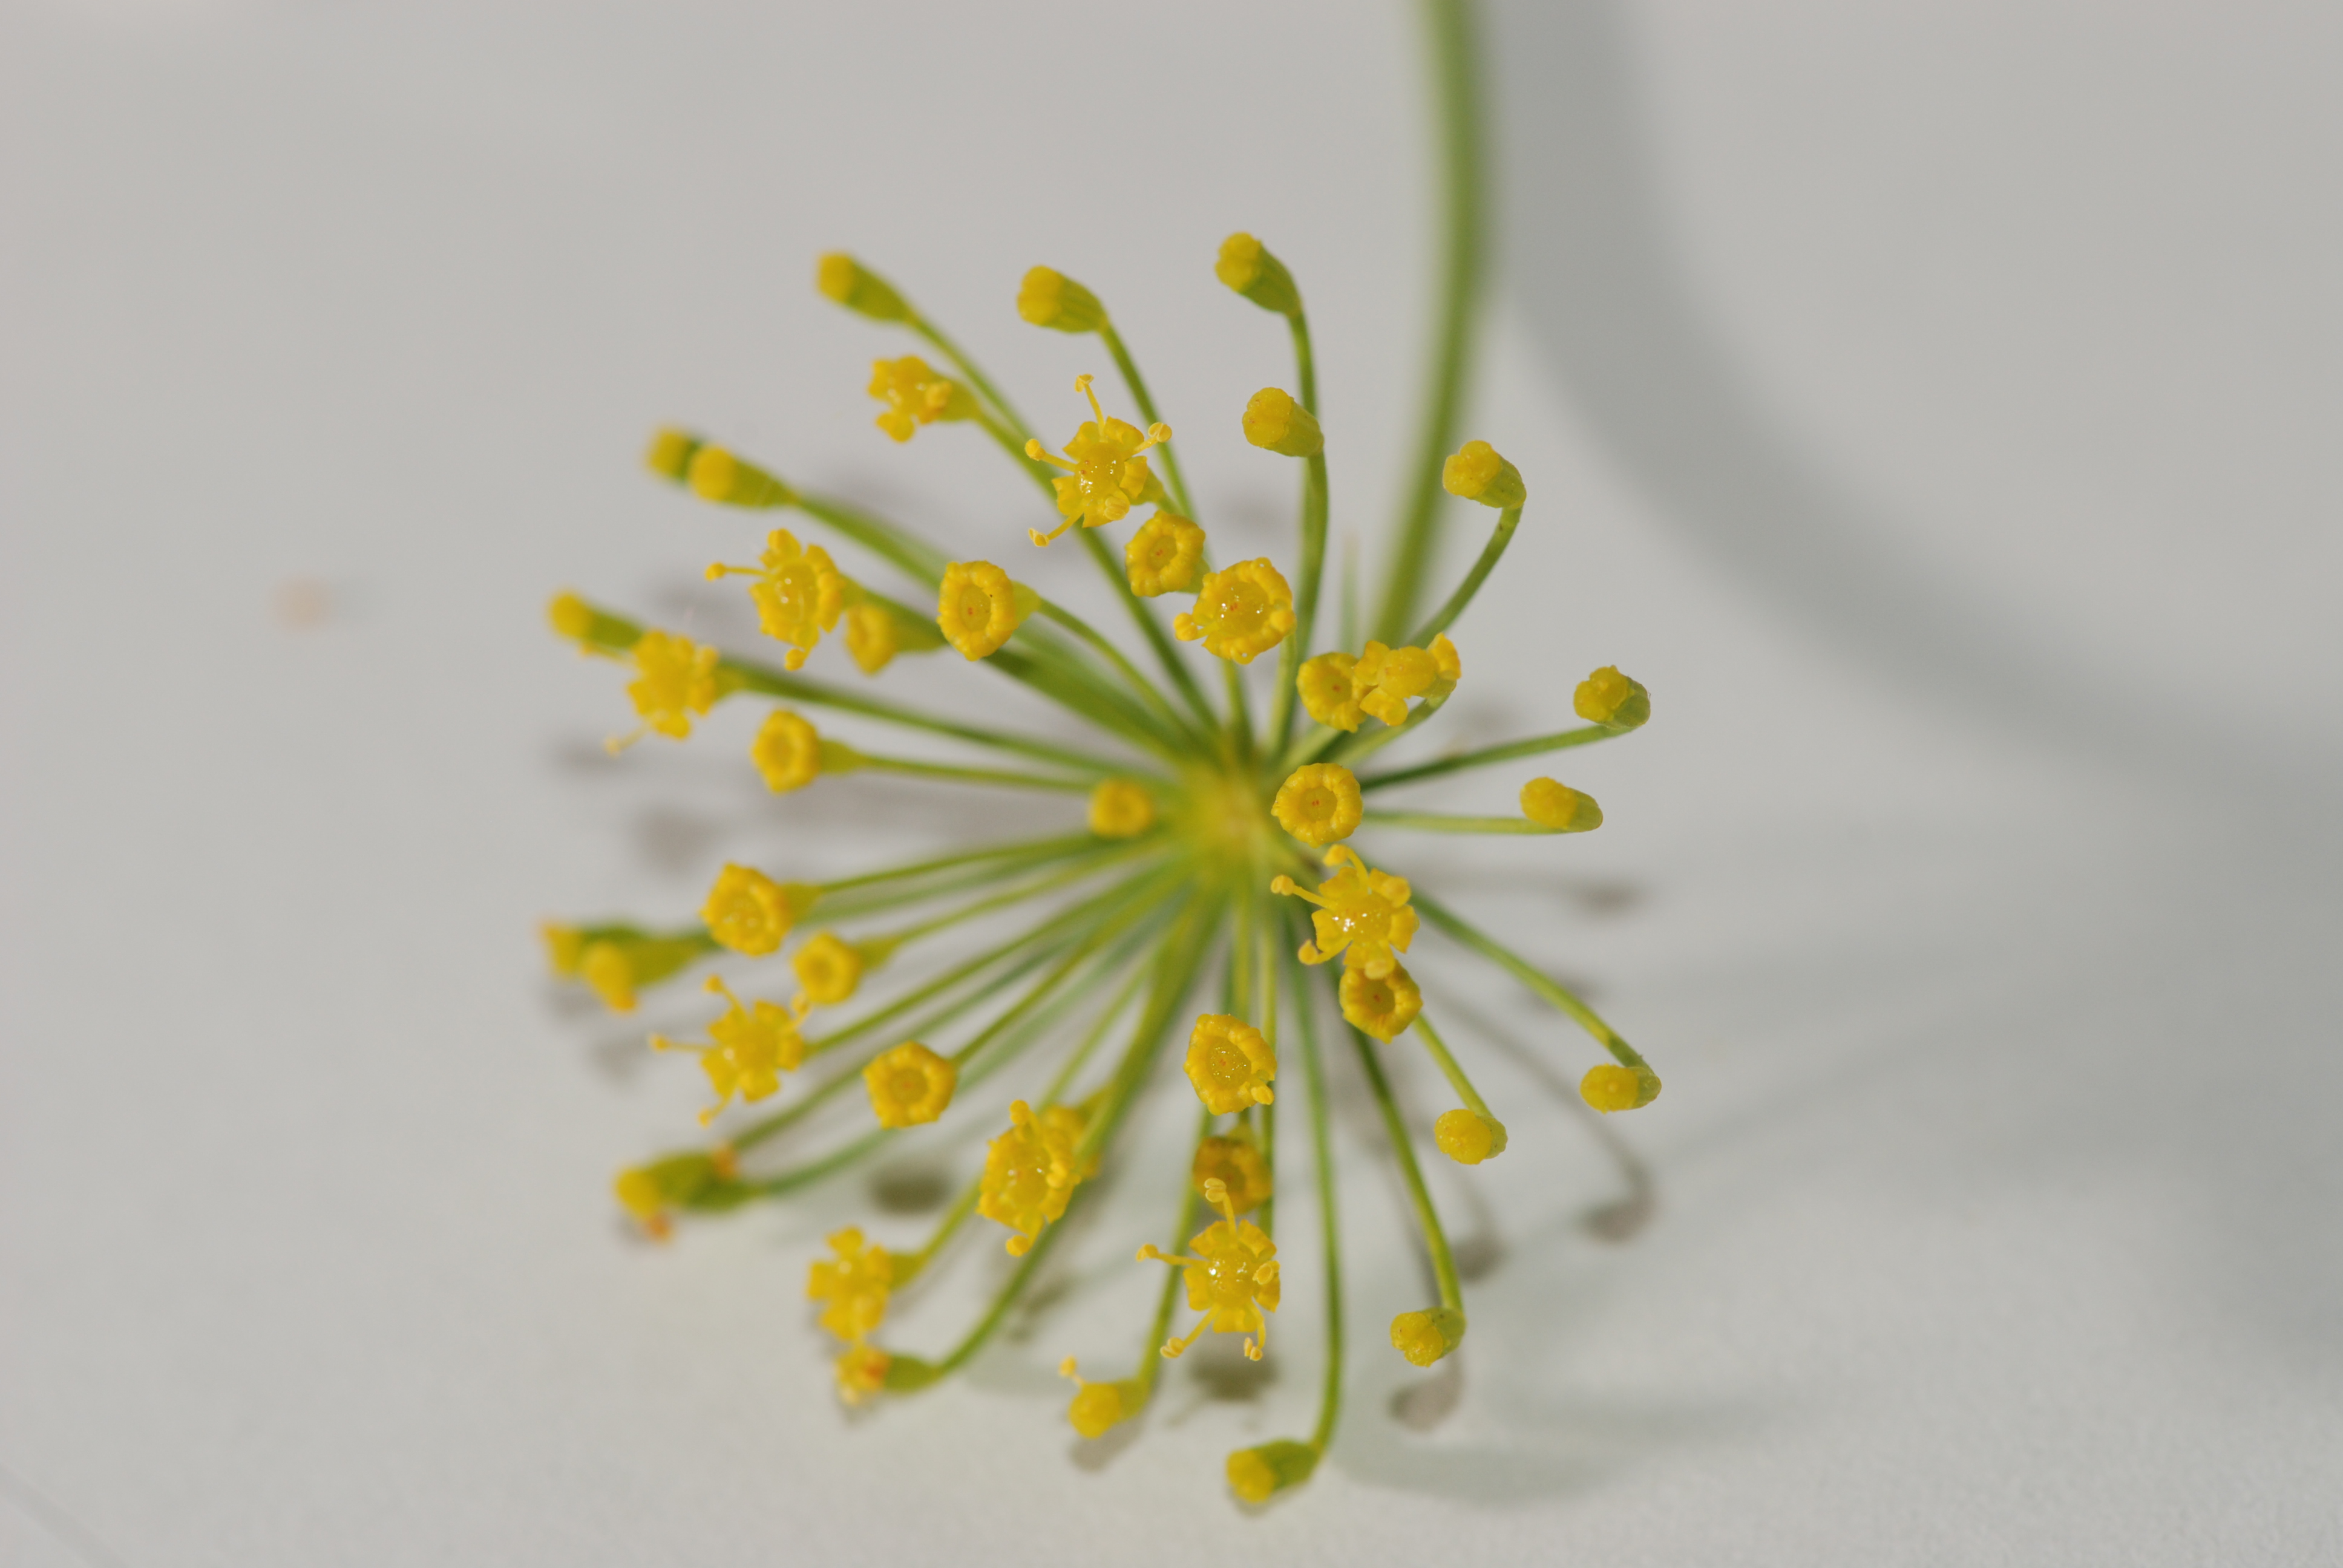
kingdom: Plantae
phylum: Tracheophyta
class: Magnoliopsida
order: Apiales
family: Apiaceae
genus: Anethum
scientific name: Anethum graveolens
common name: Dill
